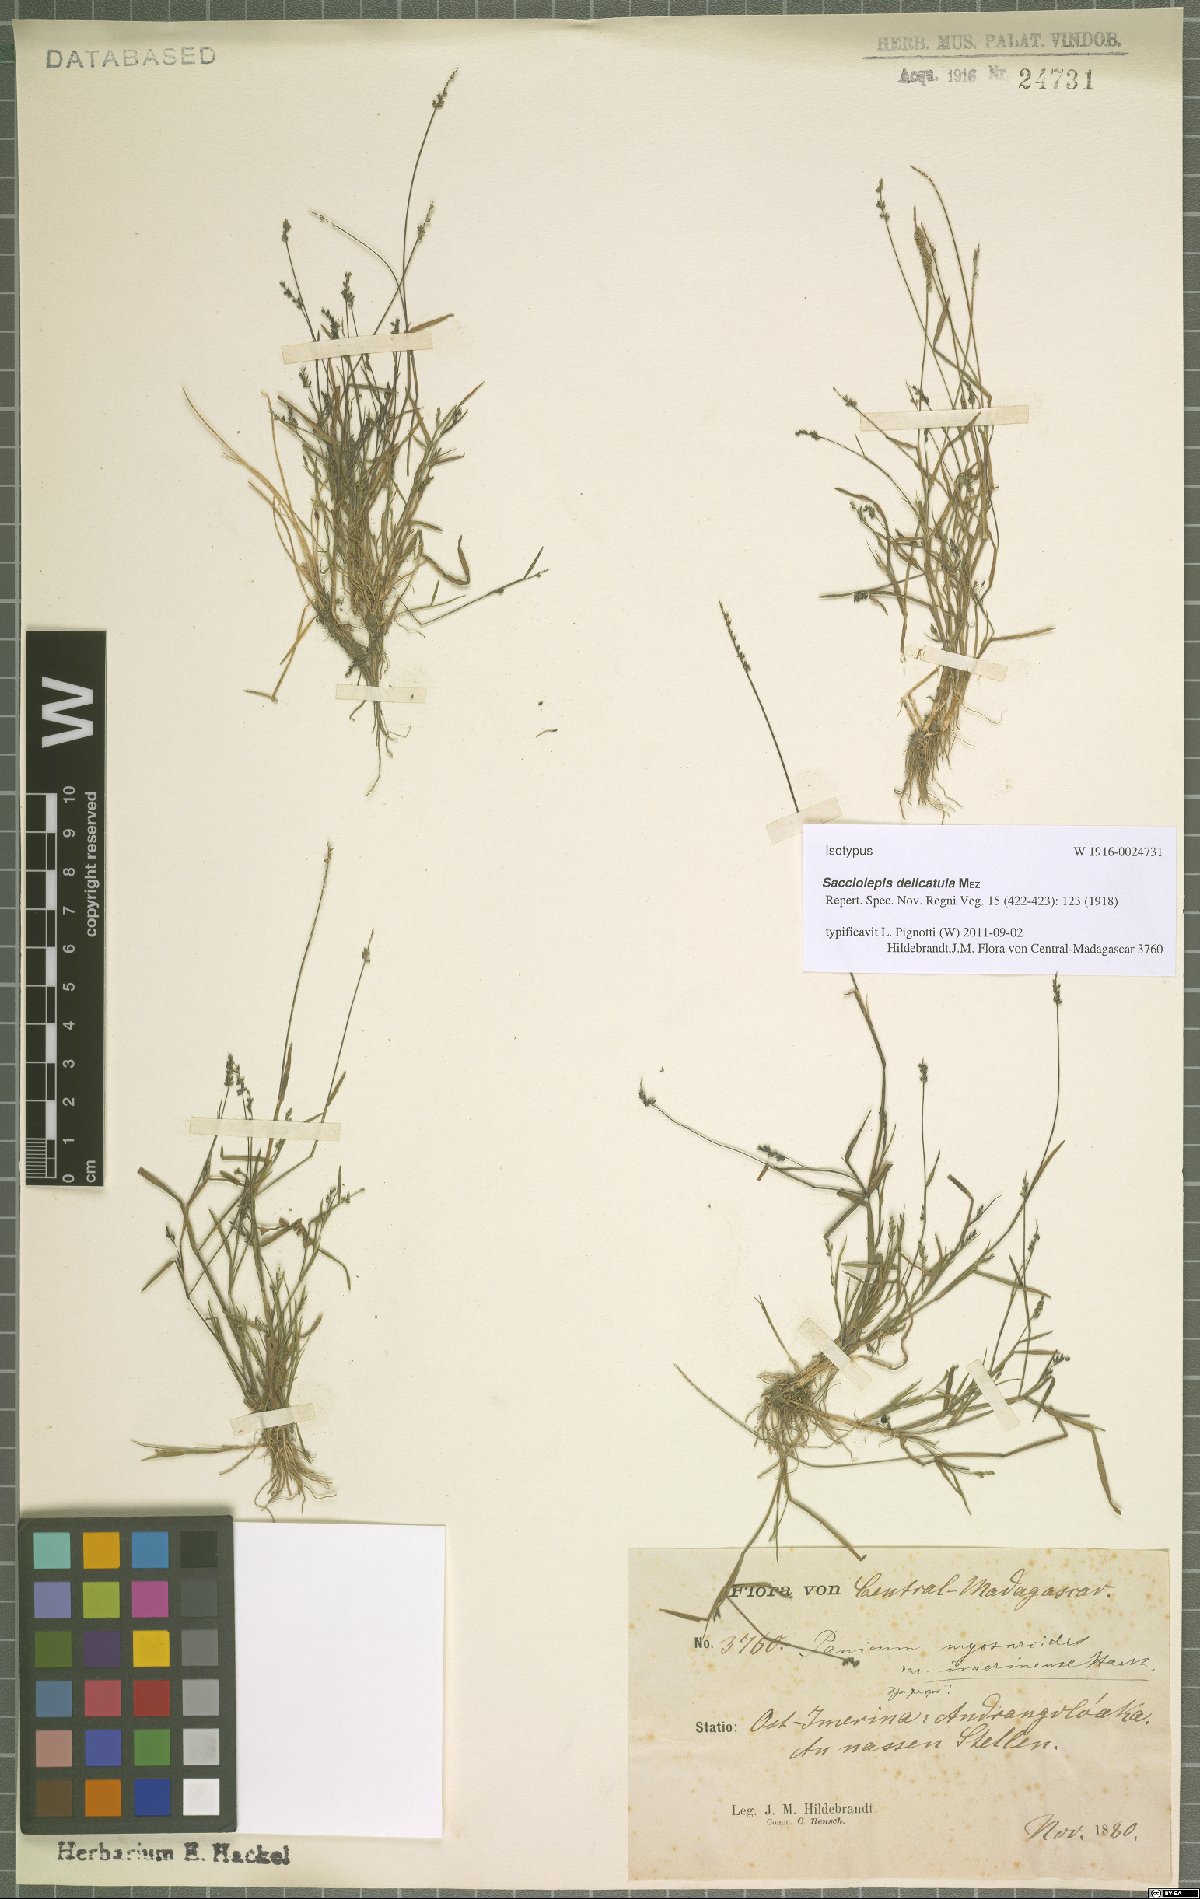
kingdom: Plantae
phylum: Tracheophyta
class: Liliopsida
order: Poales
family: Poaceae
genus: Sacciolepis
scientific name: Sacciolepis myosuroides
